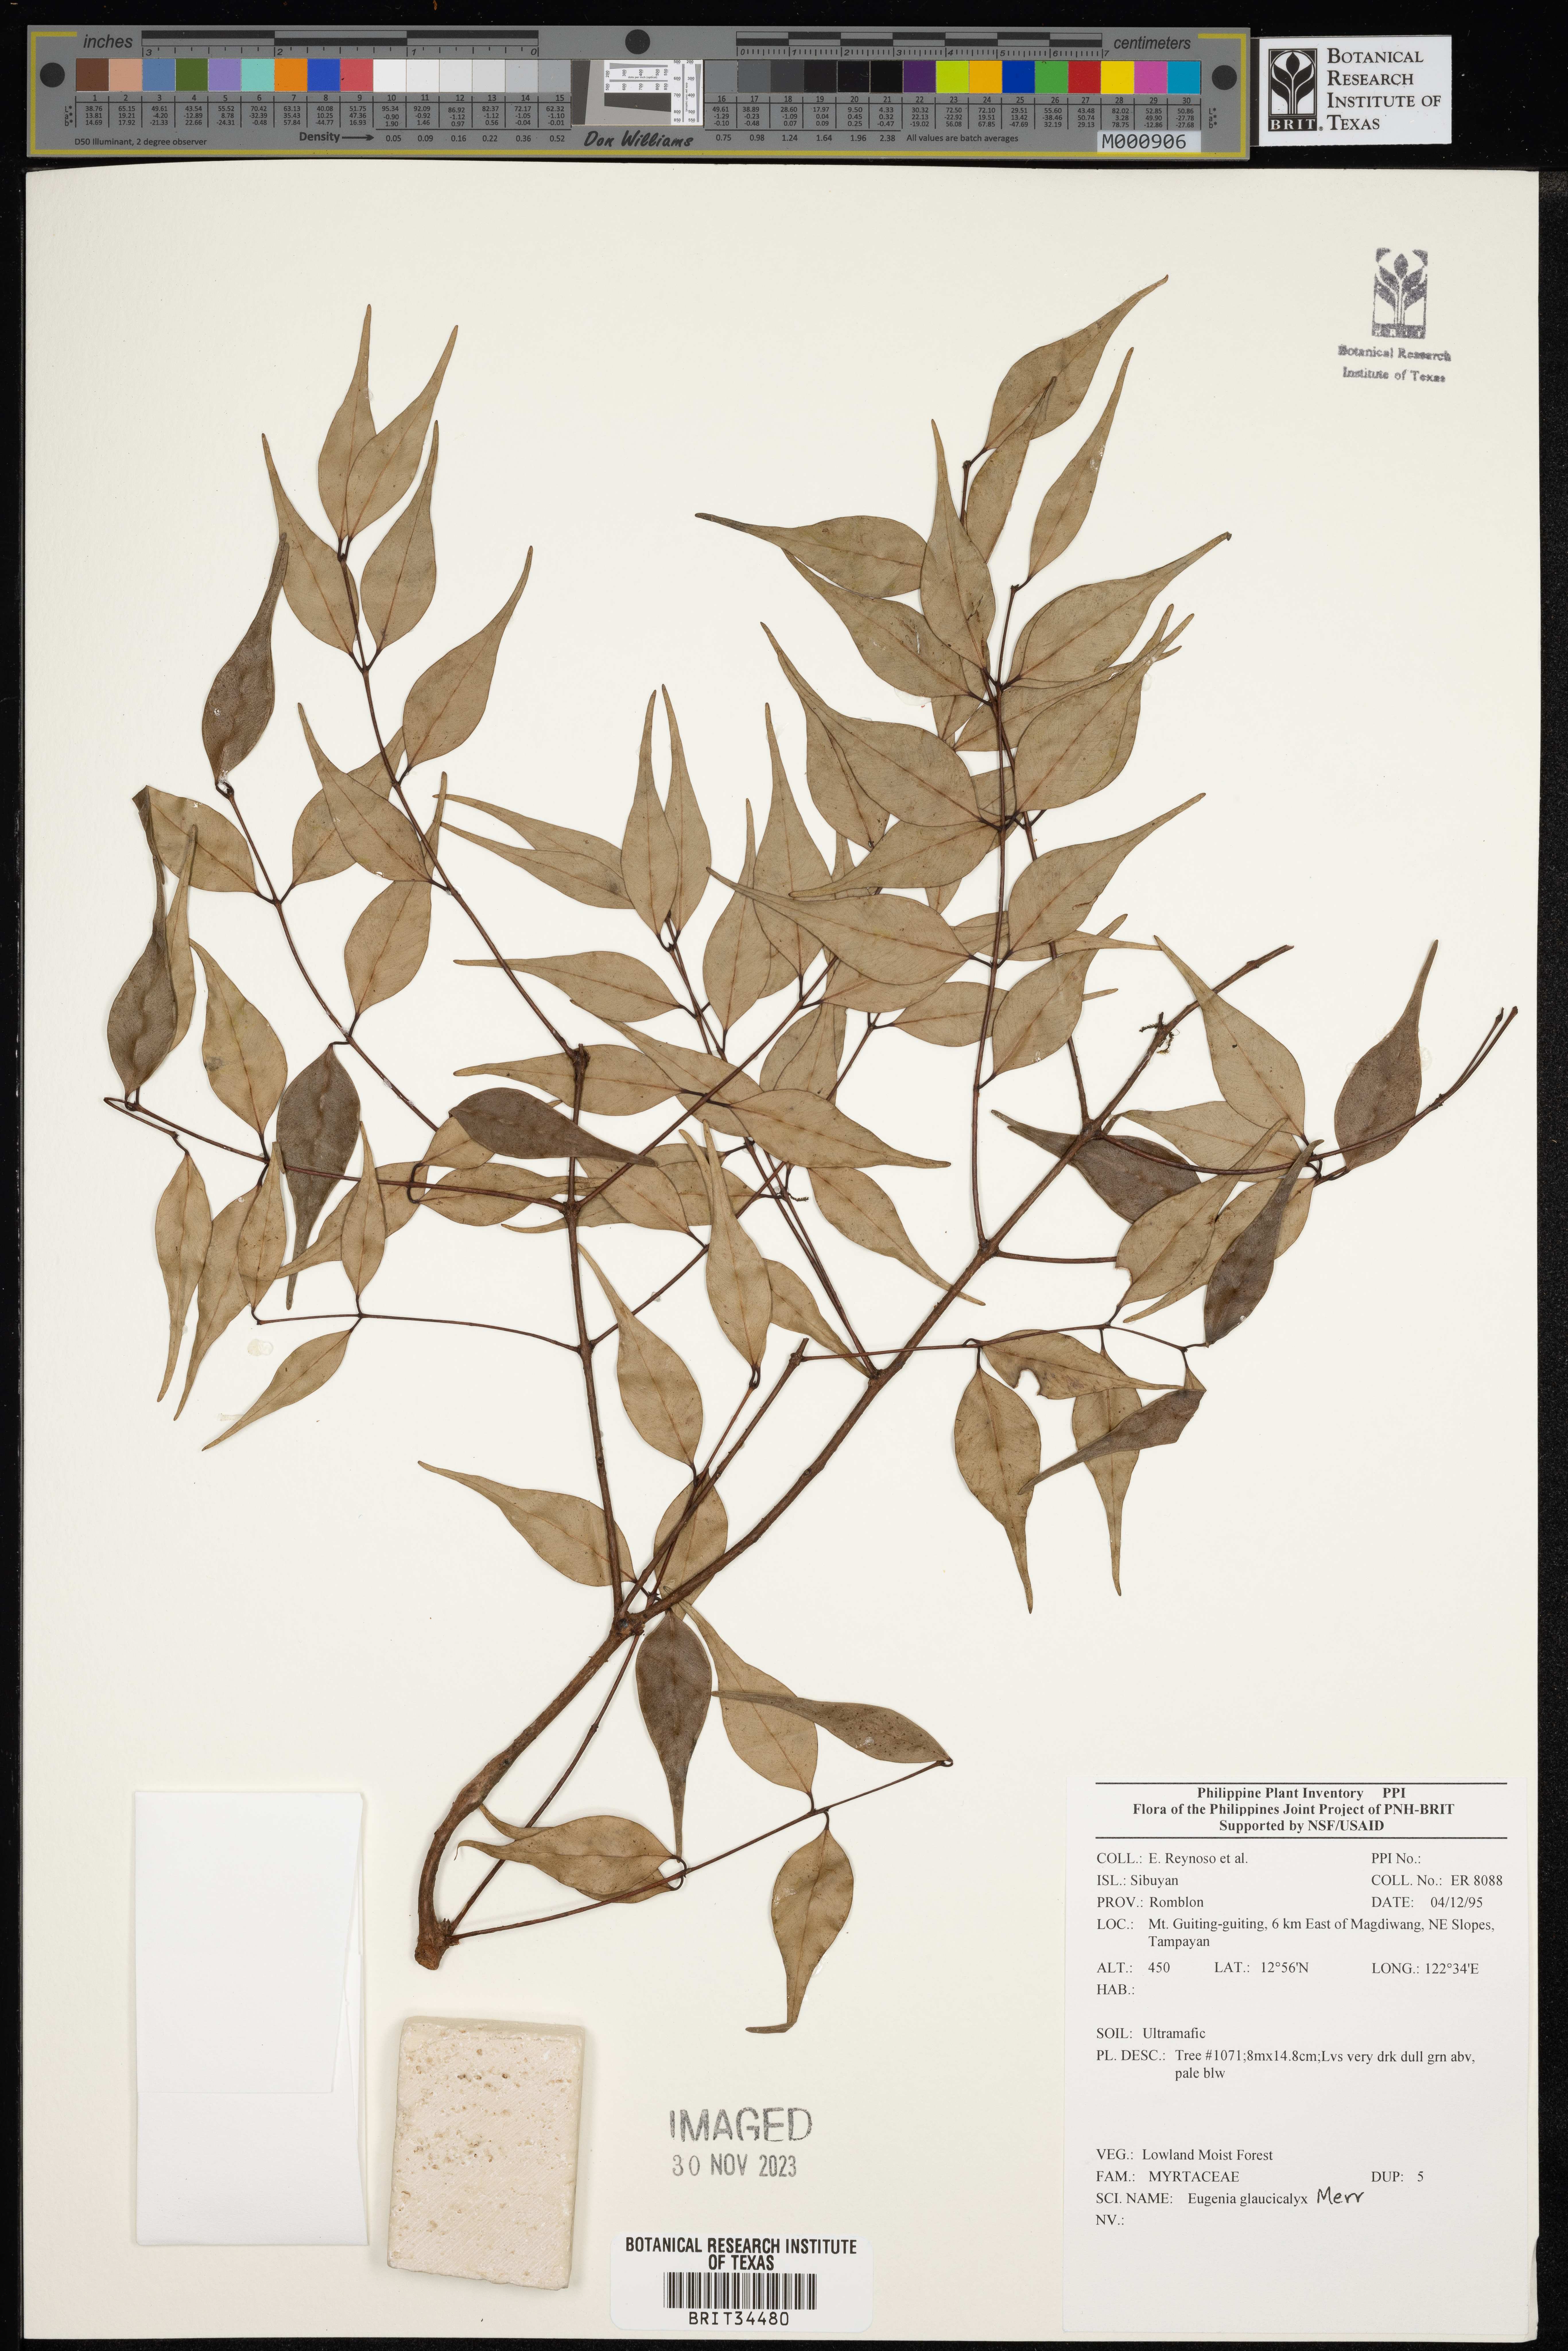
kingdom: Plantae
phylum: Tracheophyta
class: Magnoliopsida
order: Myrtales
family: Myrtaceae
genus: Eugenia
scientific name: Eugenia
